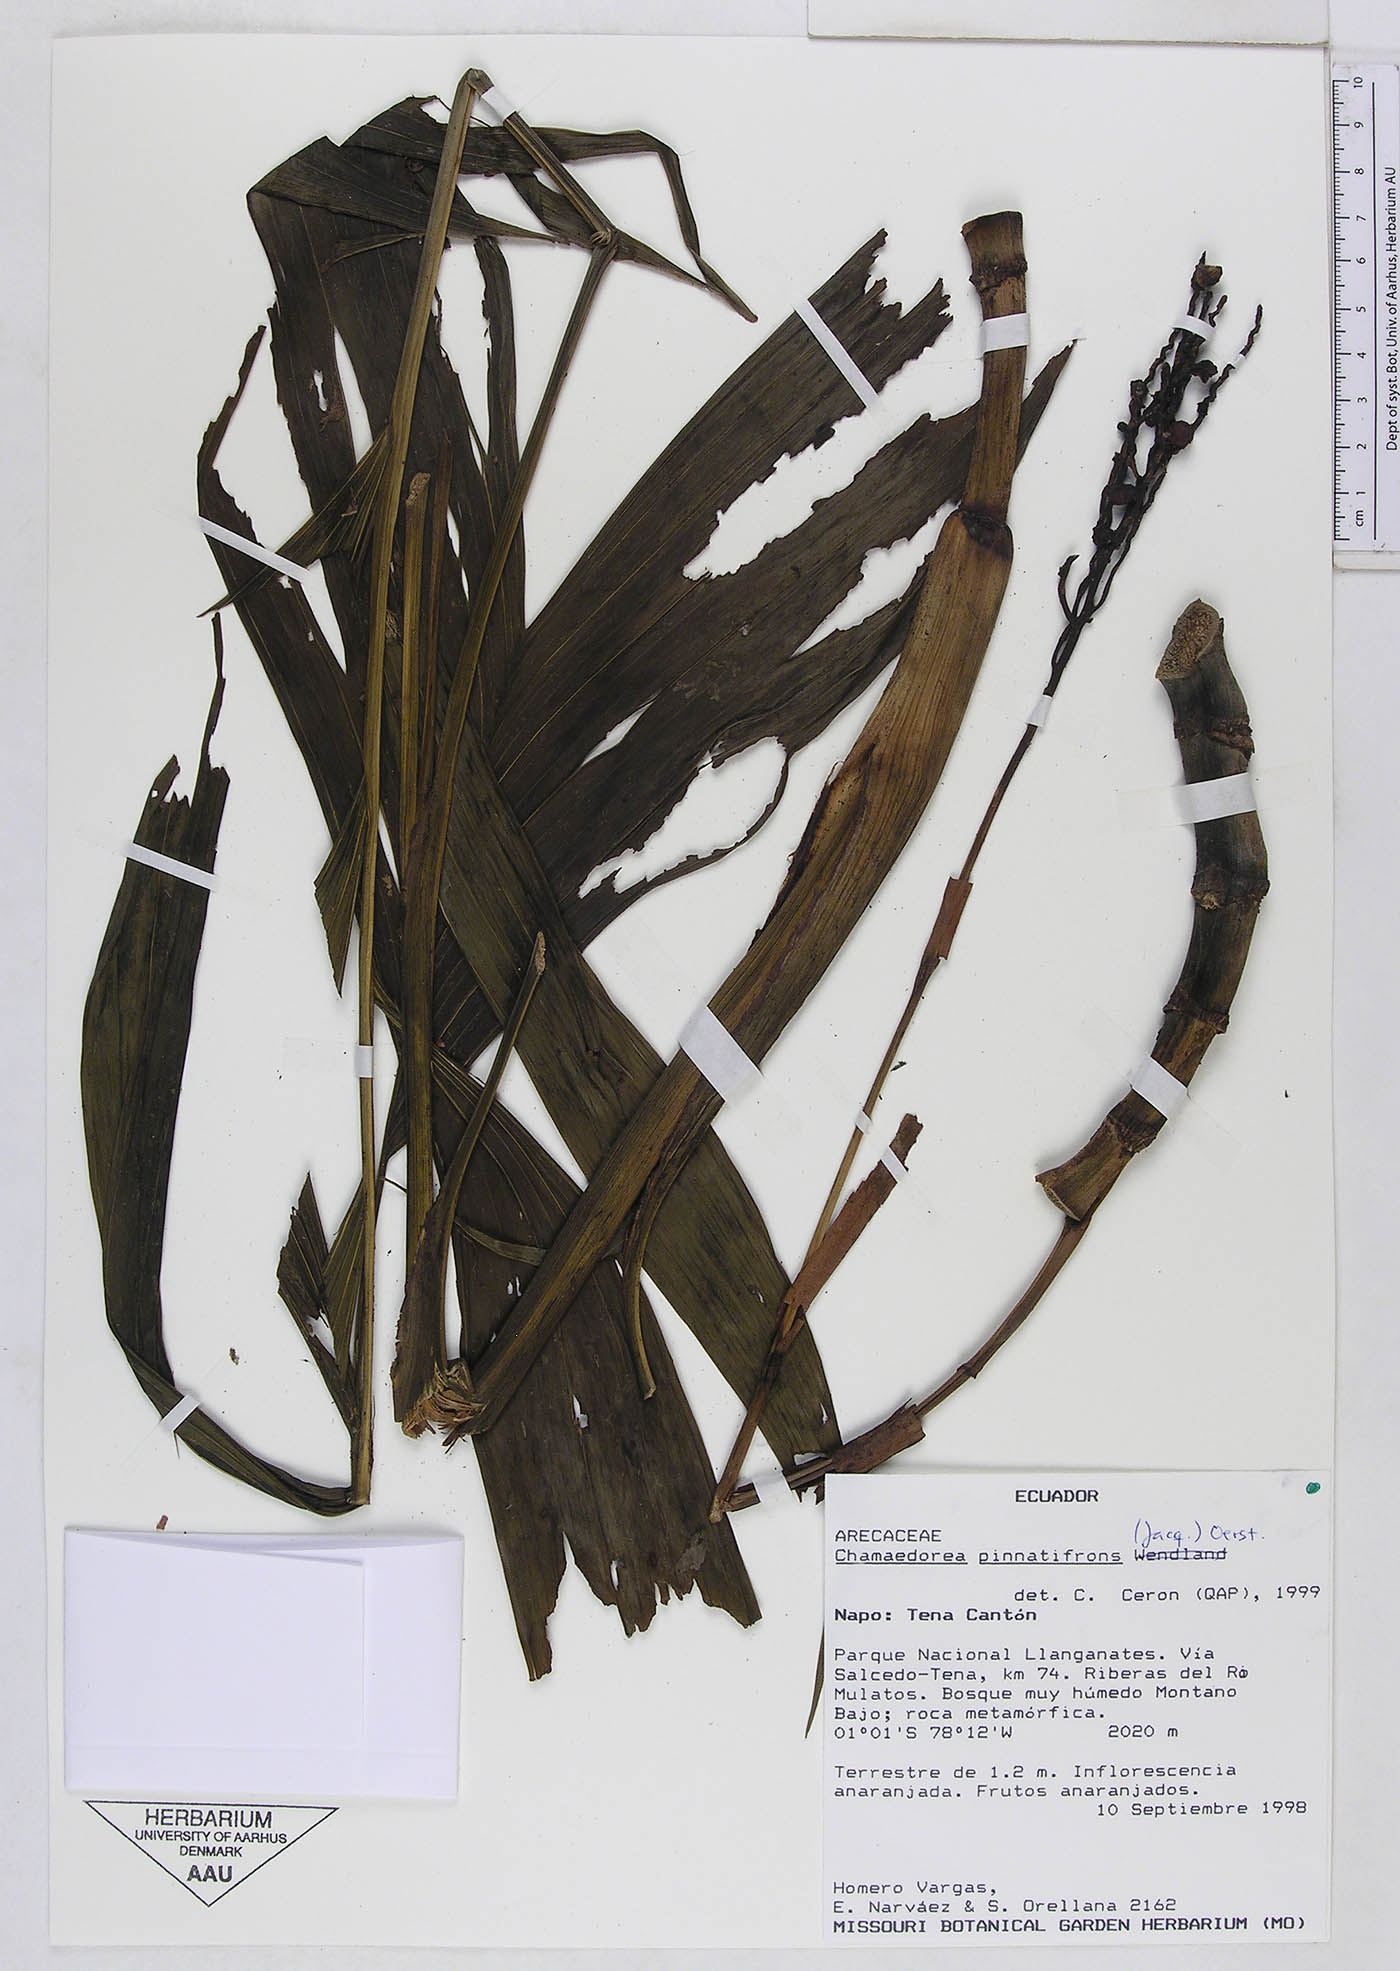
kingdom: Plantae
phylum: Tracheophyta
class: Liliopsida
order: Arecales
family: Arecaceae
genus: Chamaedorea
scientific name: Chamaedorea pinnatifrons
